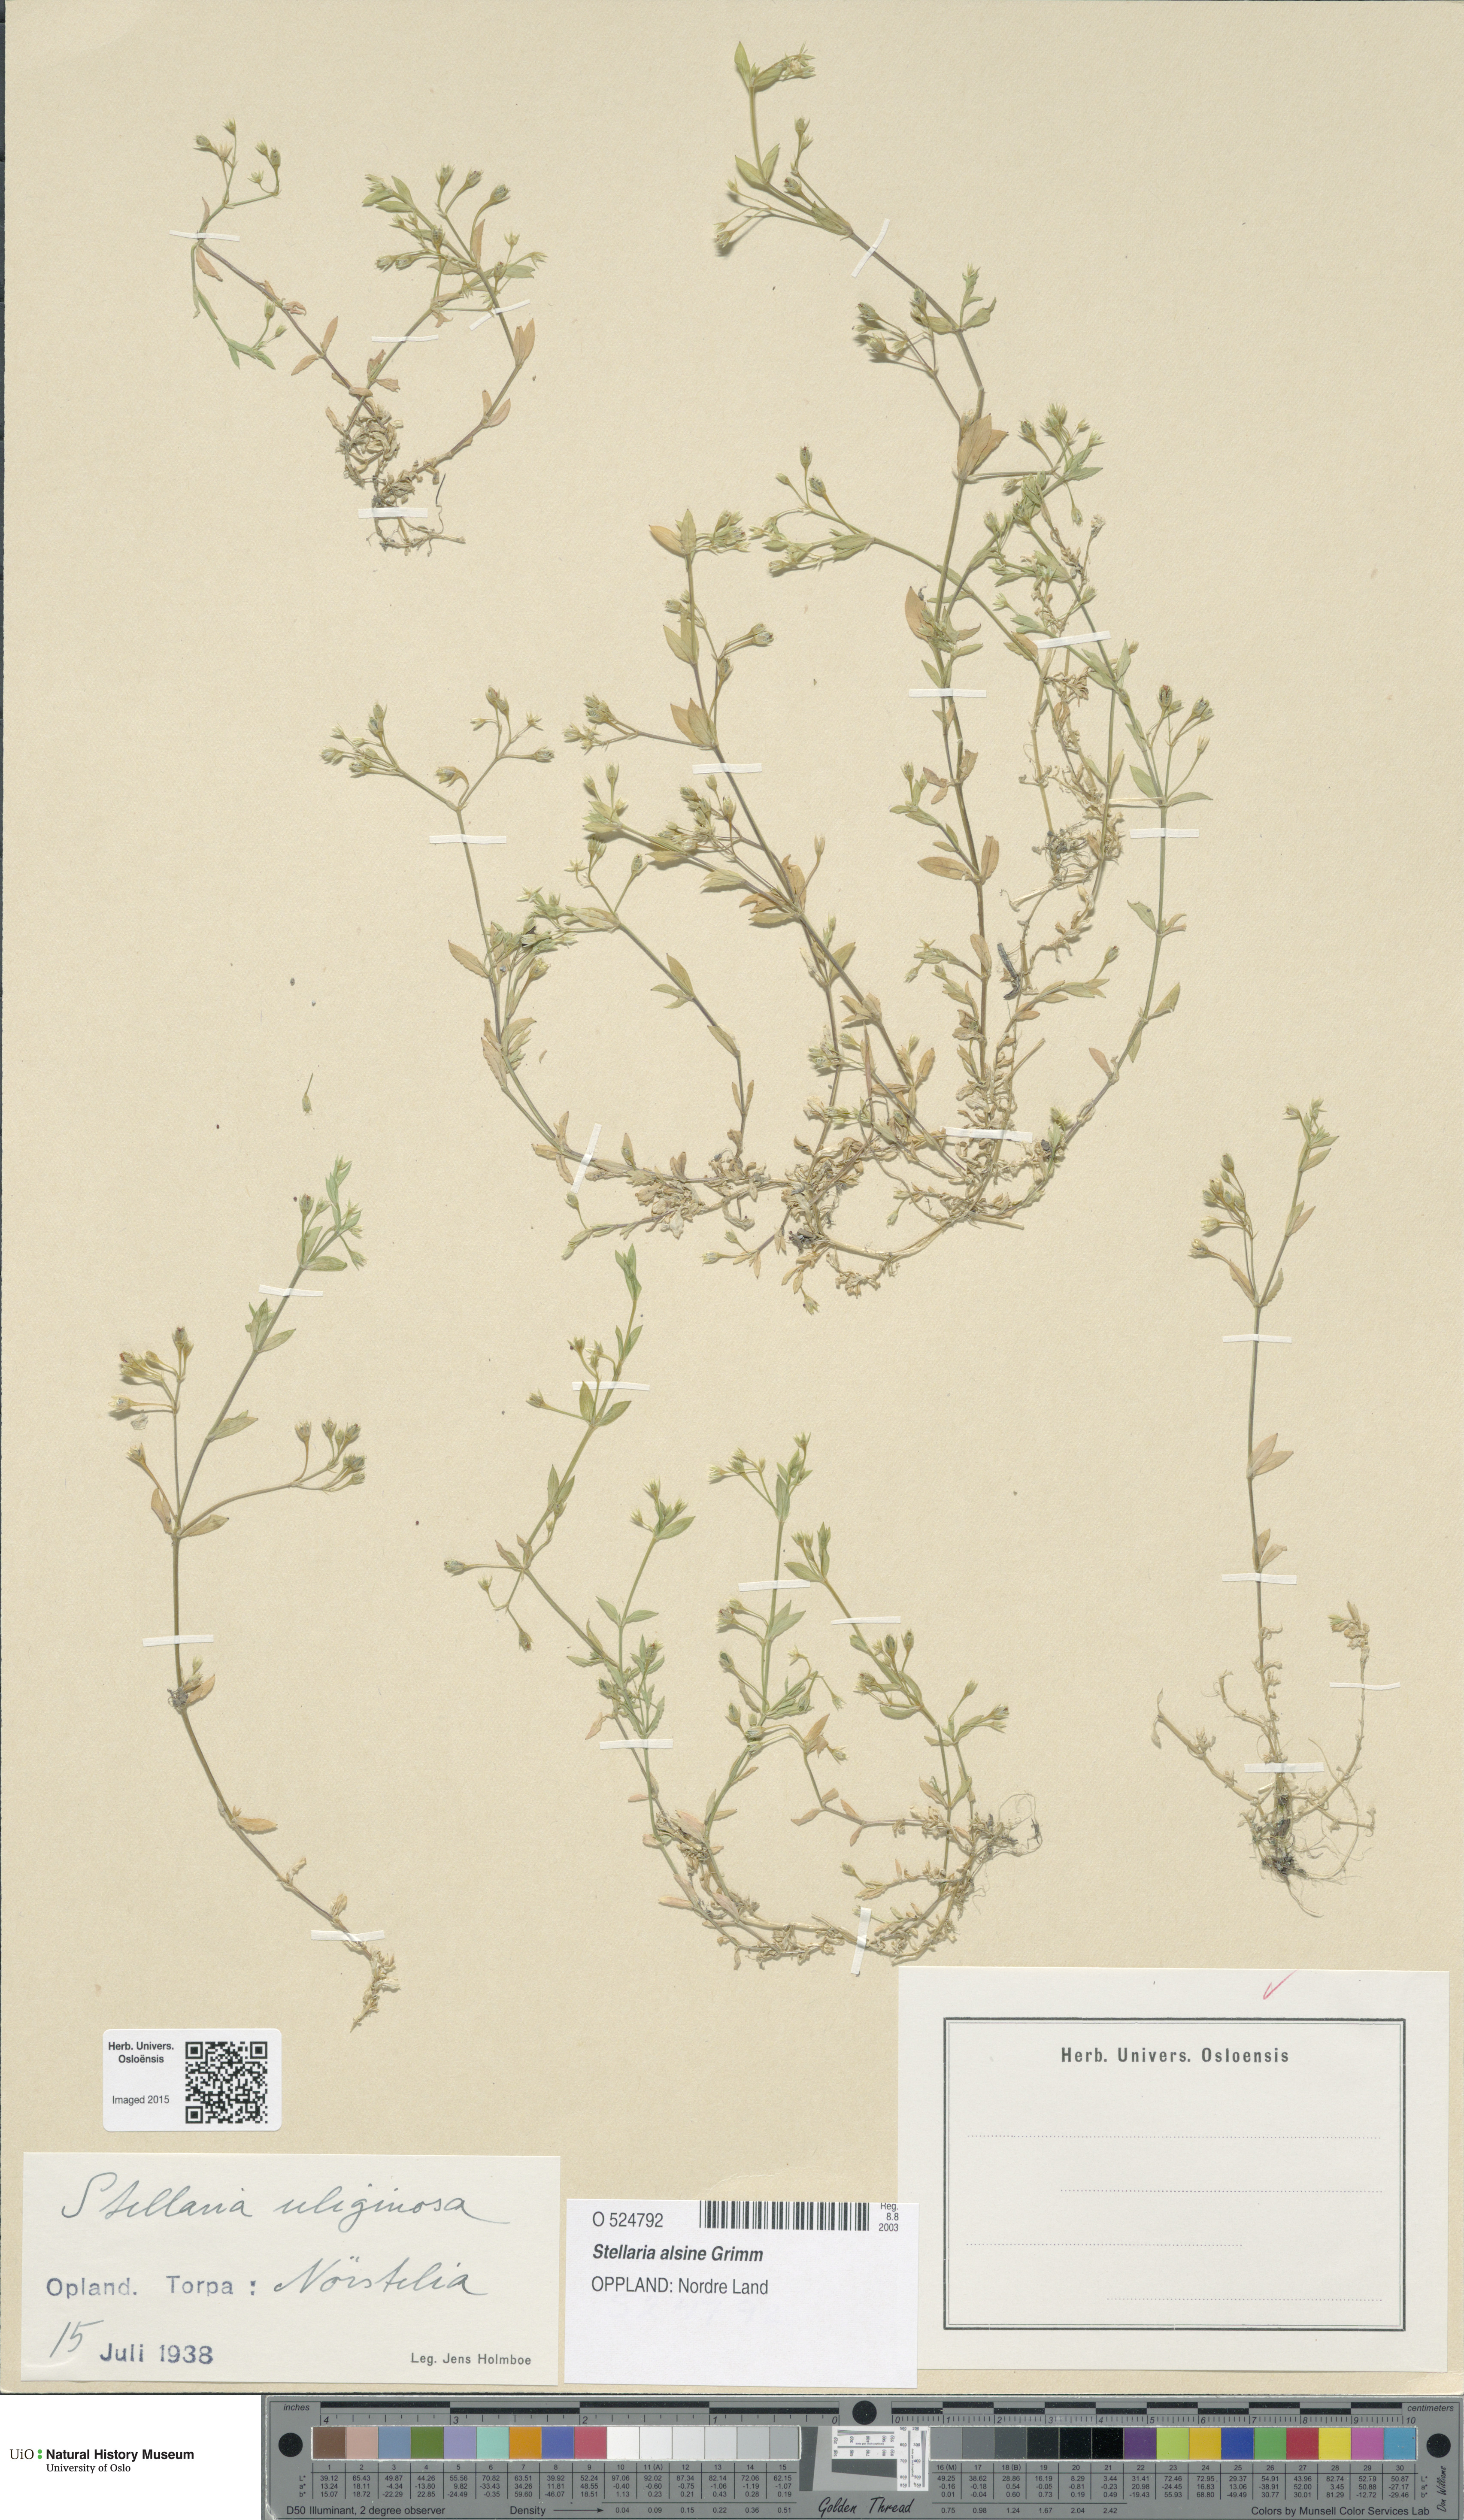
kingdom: Plantae
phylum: Tracheophyta
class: Magnoliopsida
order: Caryophyllales
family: Caryophyllaceae
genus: Stellaria
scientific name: Stellaria alsine
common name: Bog stitchwort
